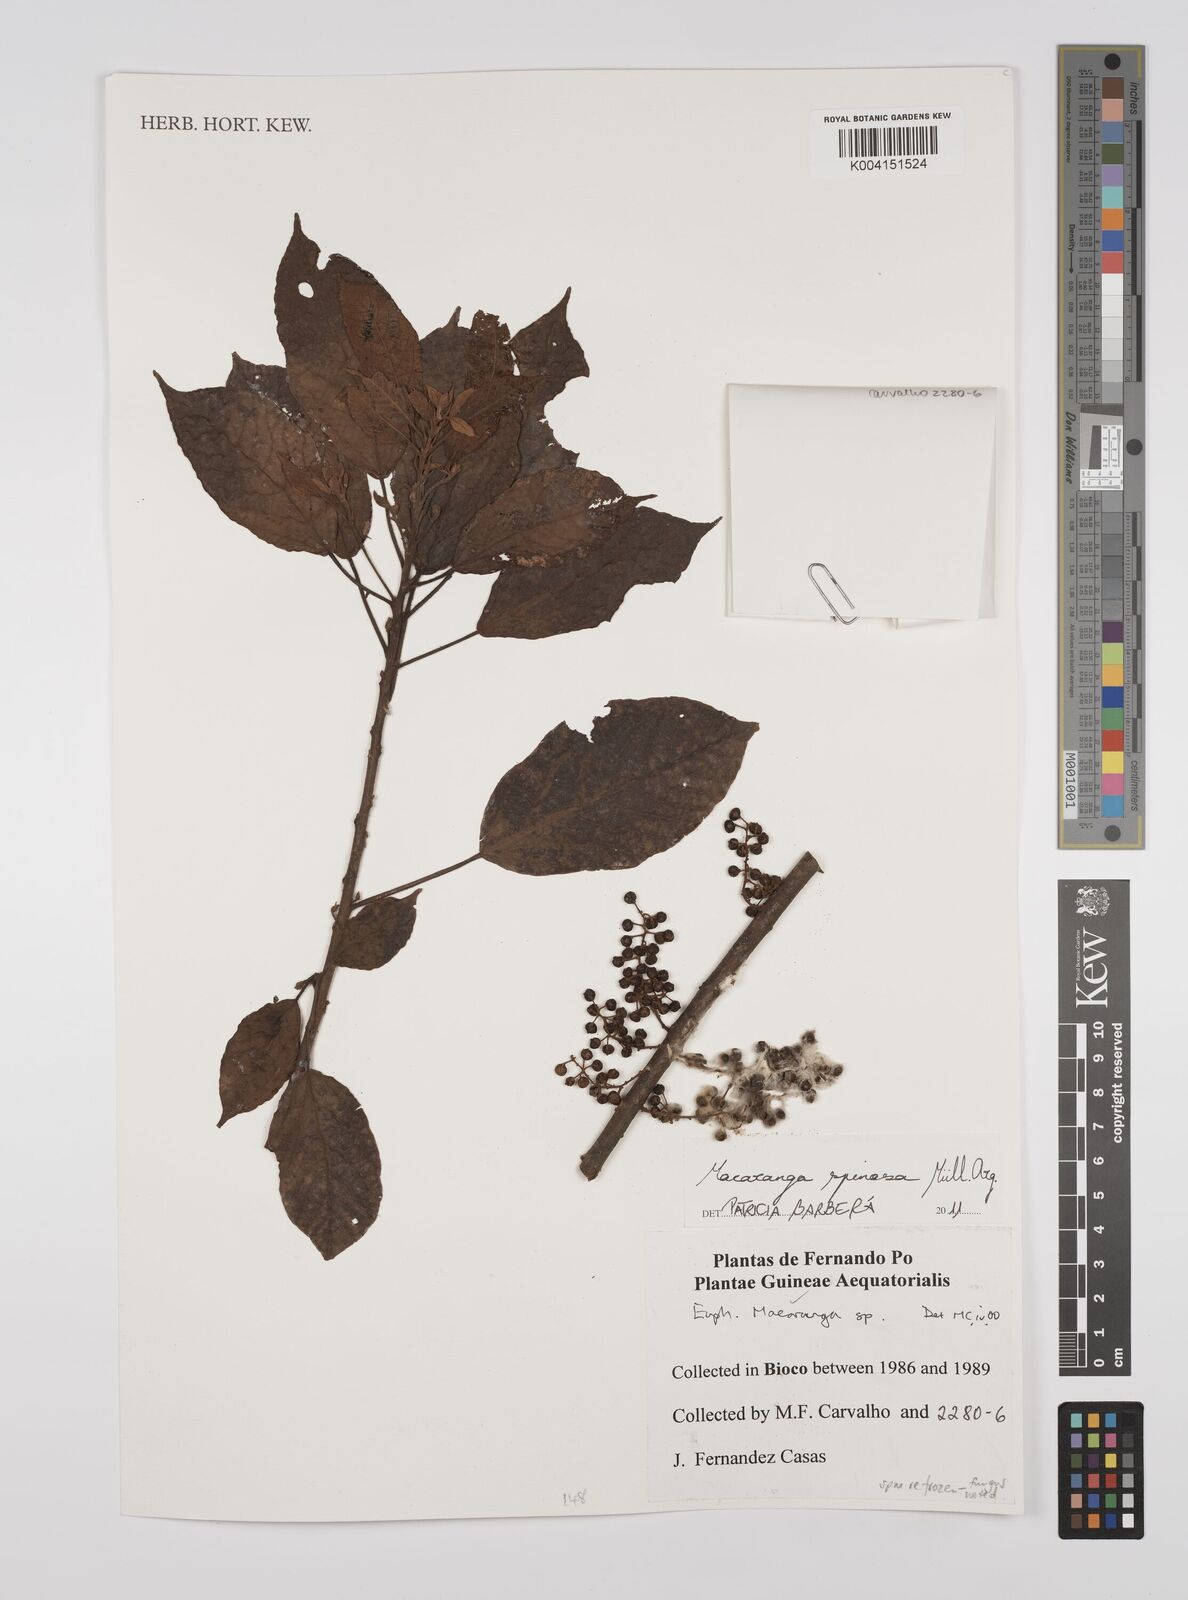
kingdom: Plantae
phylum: Tracheophyta
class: Magnoliopsida
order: Malpighiales
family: Euphorbiaceae
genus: Macaranga
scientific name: Macaranga spinosa
